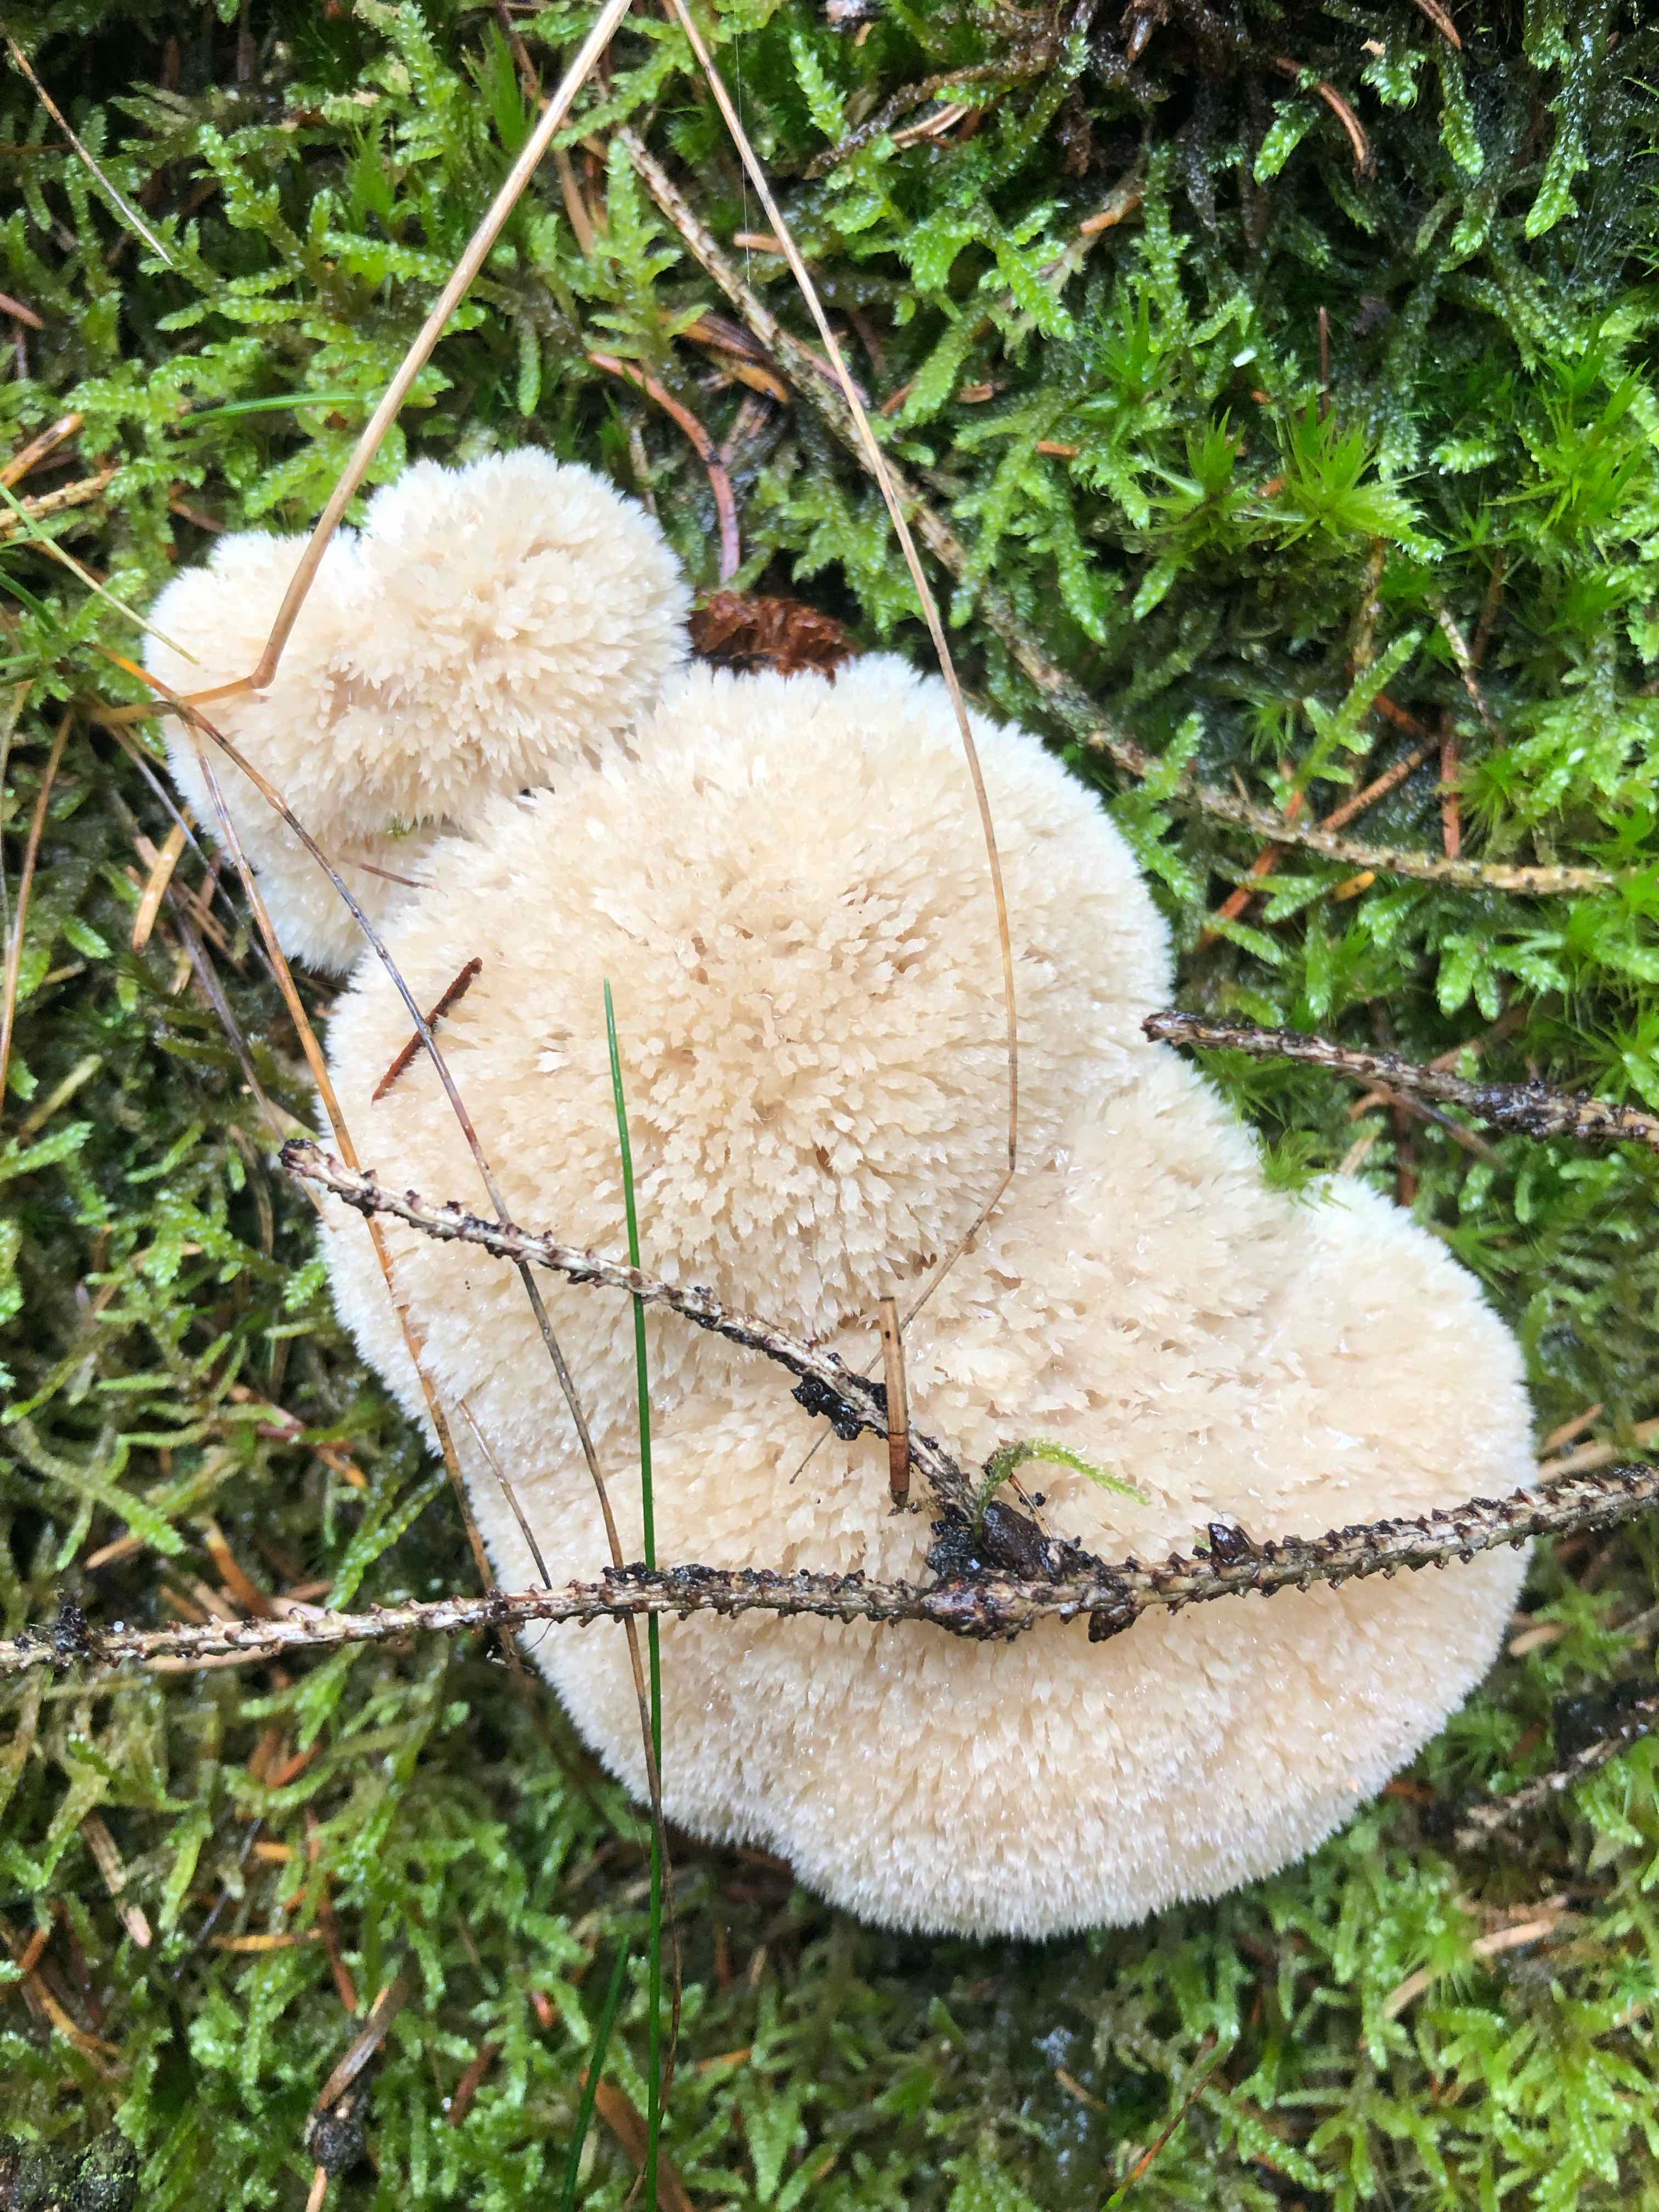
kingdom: Fungi
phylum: Basidiomycota
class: Agaricomycetes
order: Polyporales
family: Dacryobolaceae
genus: Postia
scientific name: Postia ptychogaster
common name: støvende kødporesvamp
